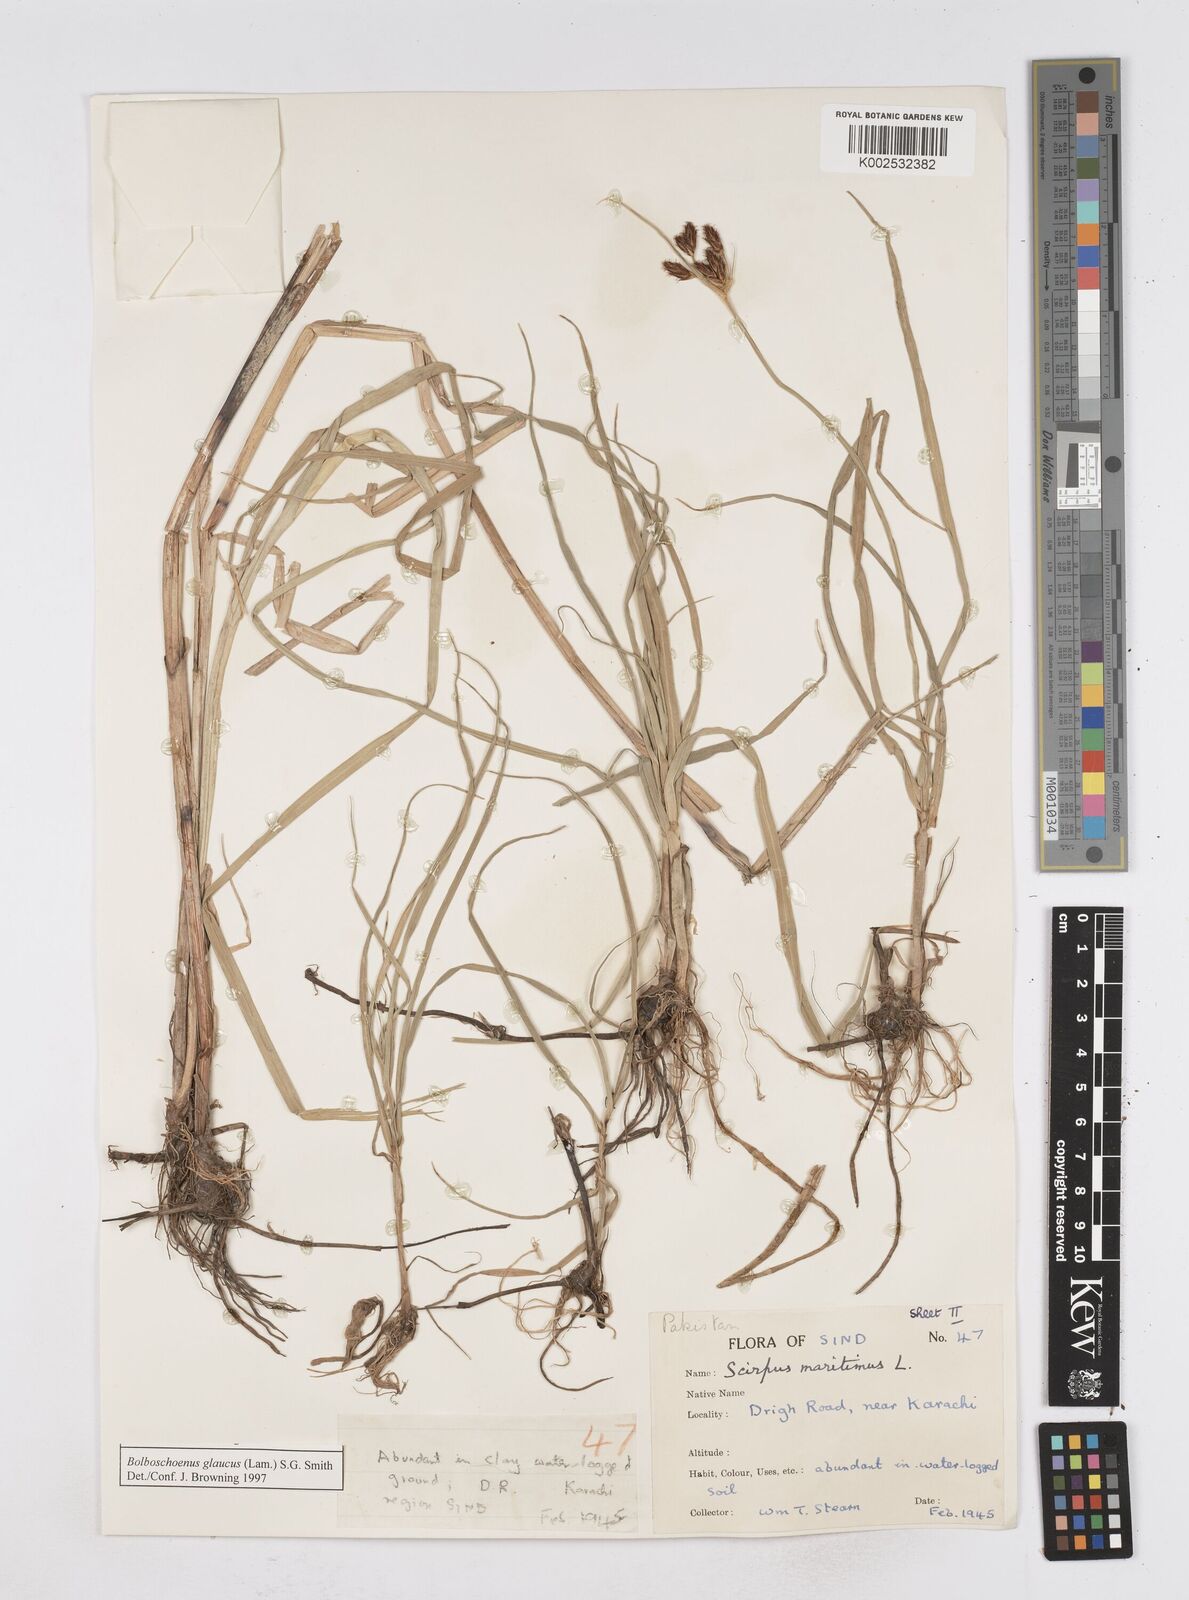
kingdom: Plantae
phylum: Tracheophyta
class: Liliopsida
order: Poales
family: Cyperaceae
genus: Bolboschoenus
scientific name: Bolboschoenus maritimus
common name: Sea club-rush
